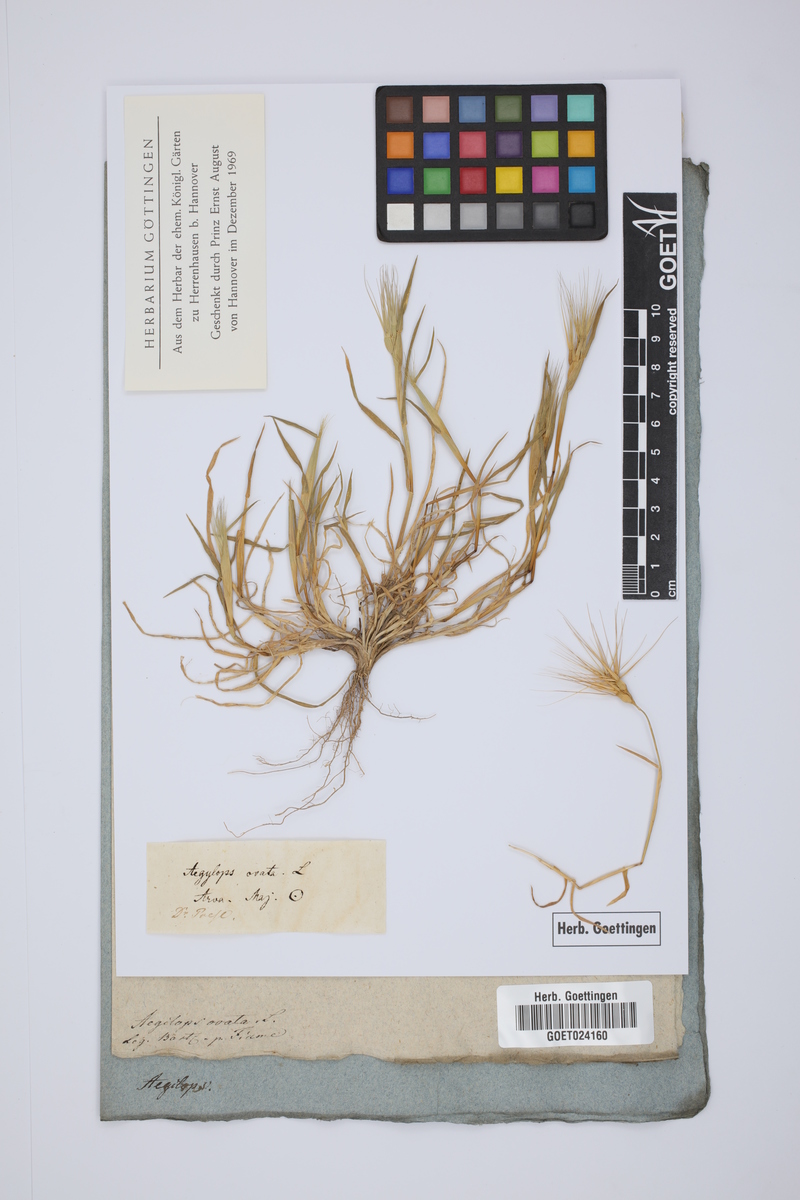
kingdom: Plantae
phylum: Tracheophyta
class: Liliopsida
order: Poales
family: Poaceae
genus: Aegilops
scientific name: Aegilops neglecta
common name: Three-awn goat grass
